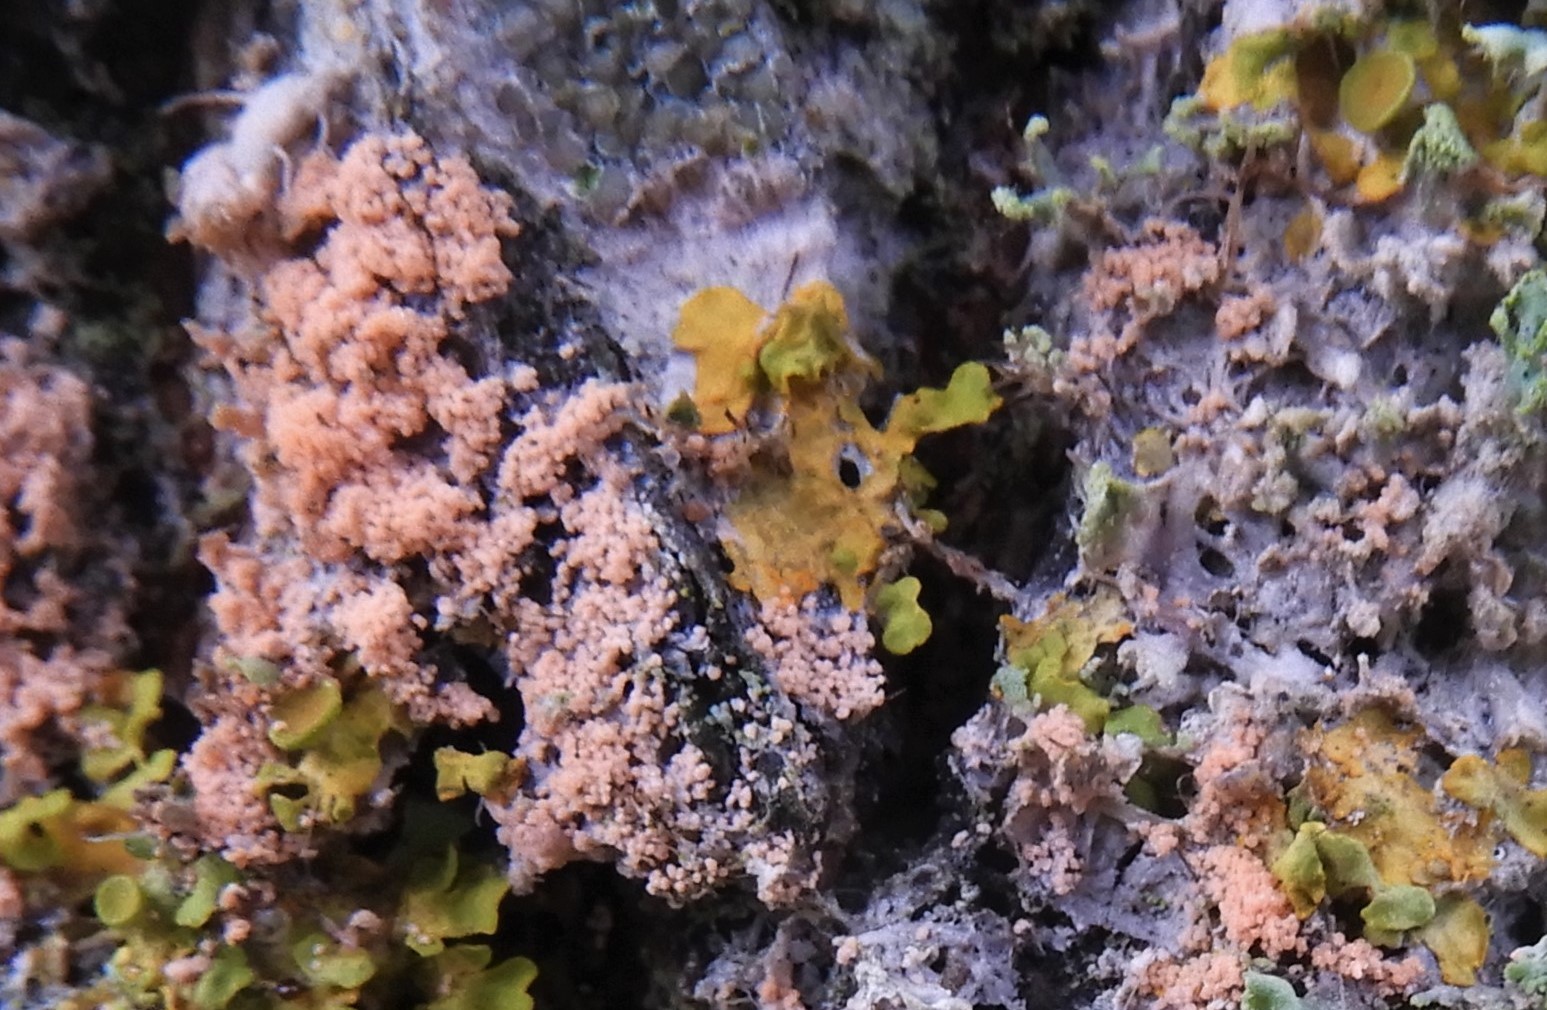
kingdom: Fungi
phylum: Basidiomycota
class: Agaricomycetes
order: Corticiales
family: Corticiaceae
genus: Erythricium
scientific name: Erythricium aurantiacum
